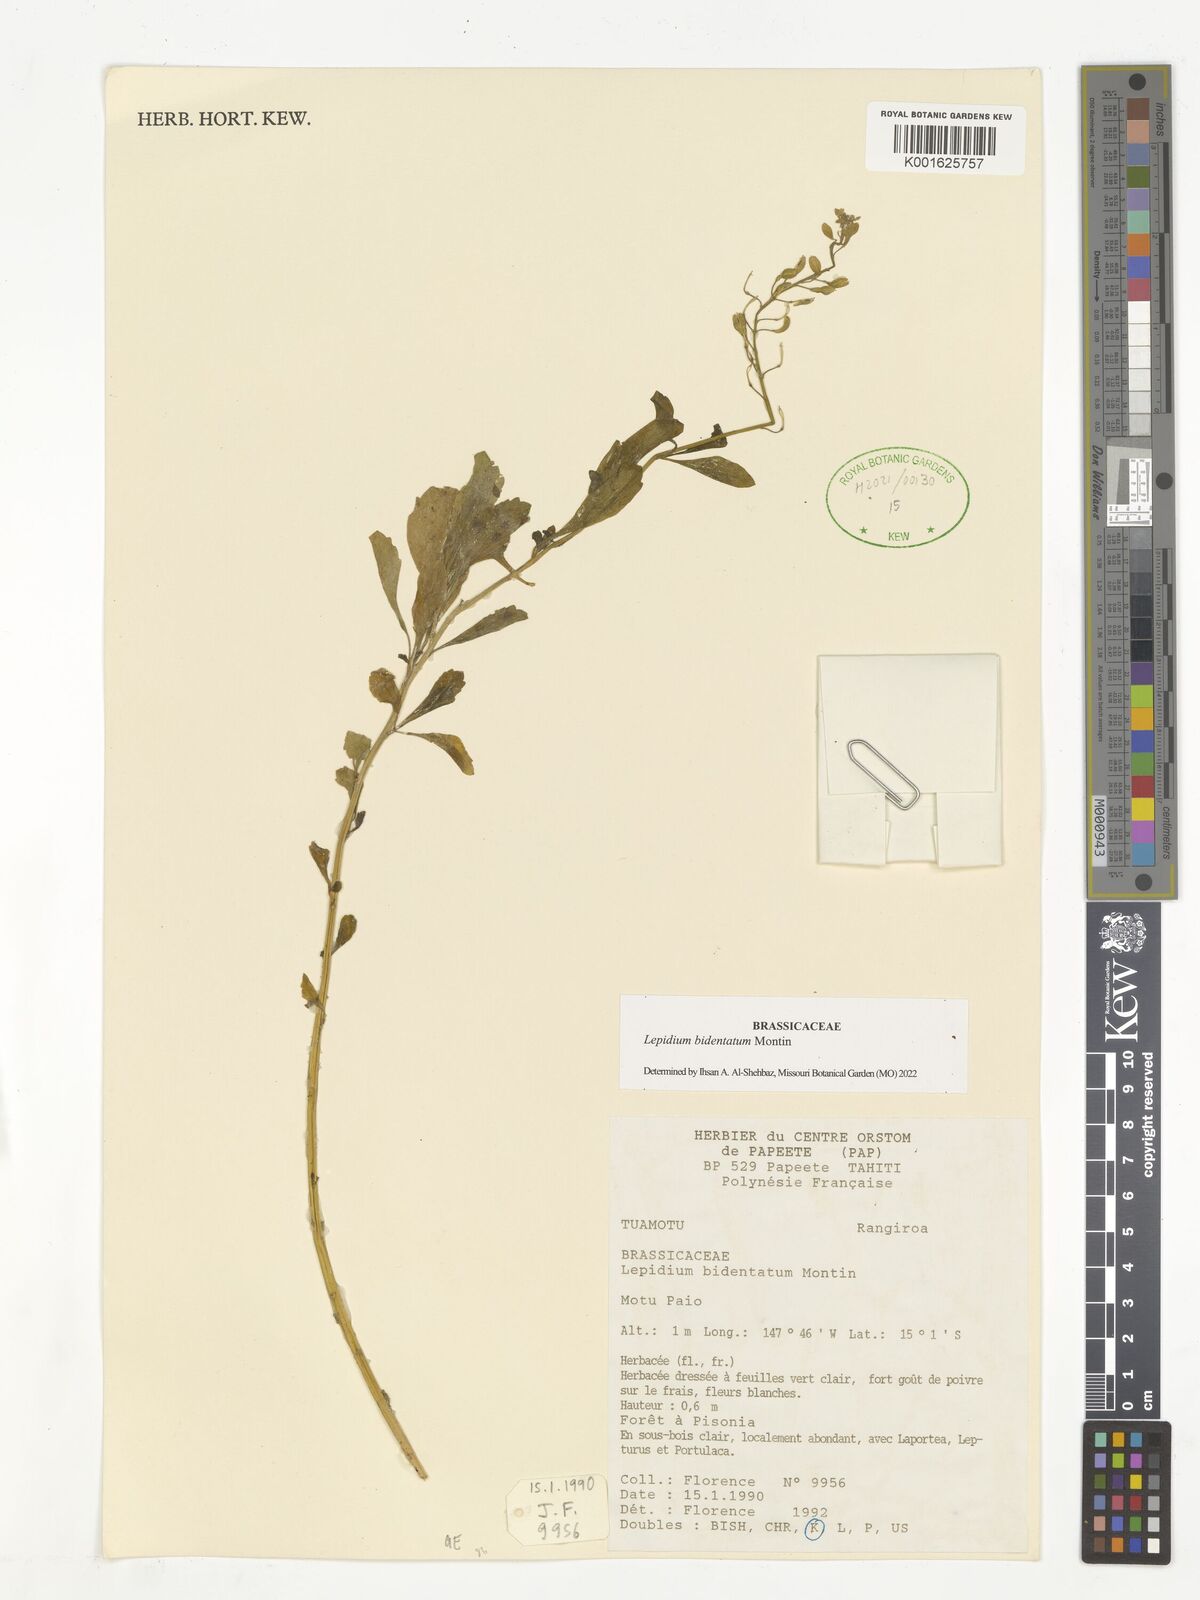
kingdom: Plantae
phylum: Tracheophyta
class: Magnoliopsida
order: Brassicales
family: Brassicaceae
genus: Lepidium
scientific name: Lepidium bidentatum
